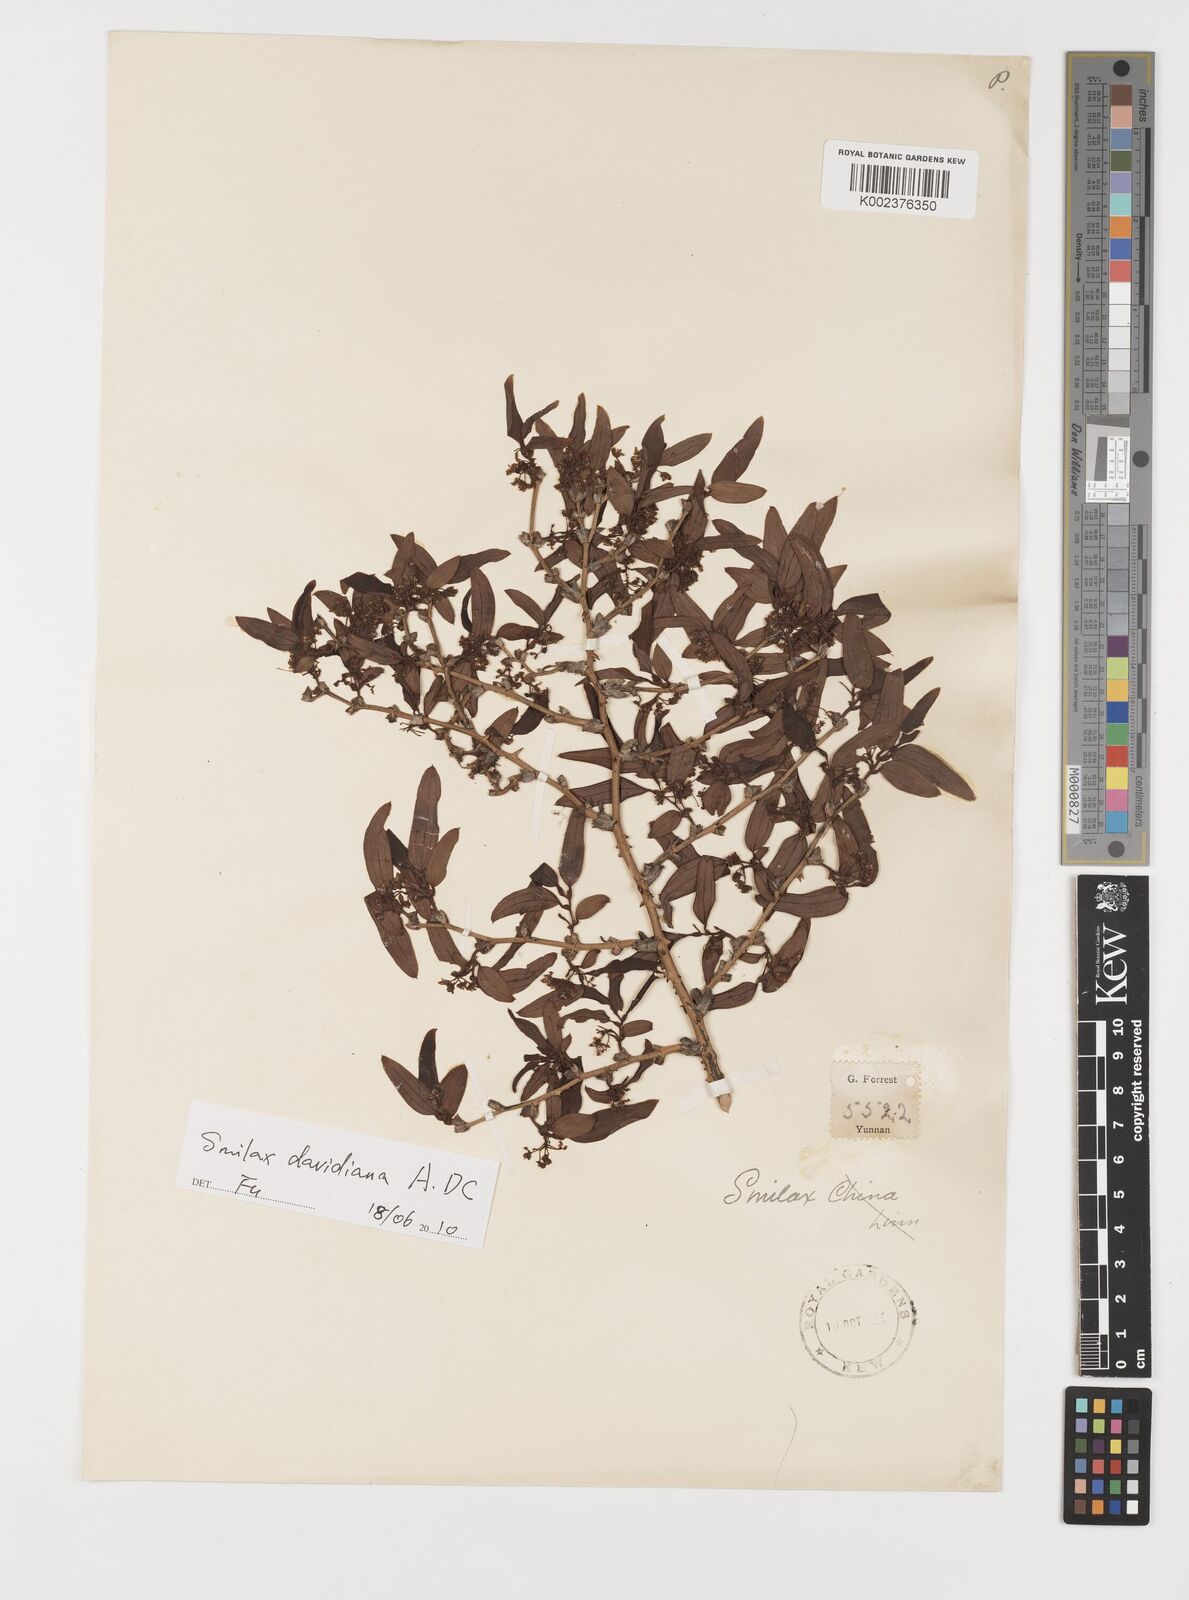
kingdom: Plantae
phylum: Tracheophyta
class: Liliopsida
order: Liliales
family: Smilacaceae
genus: Smilax
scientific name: Smilax megalantha
